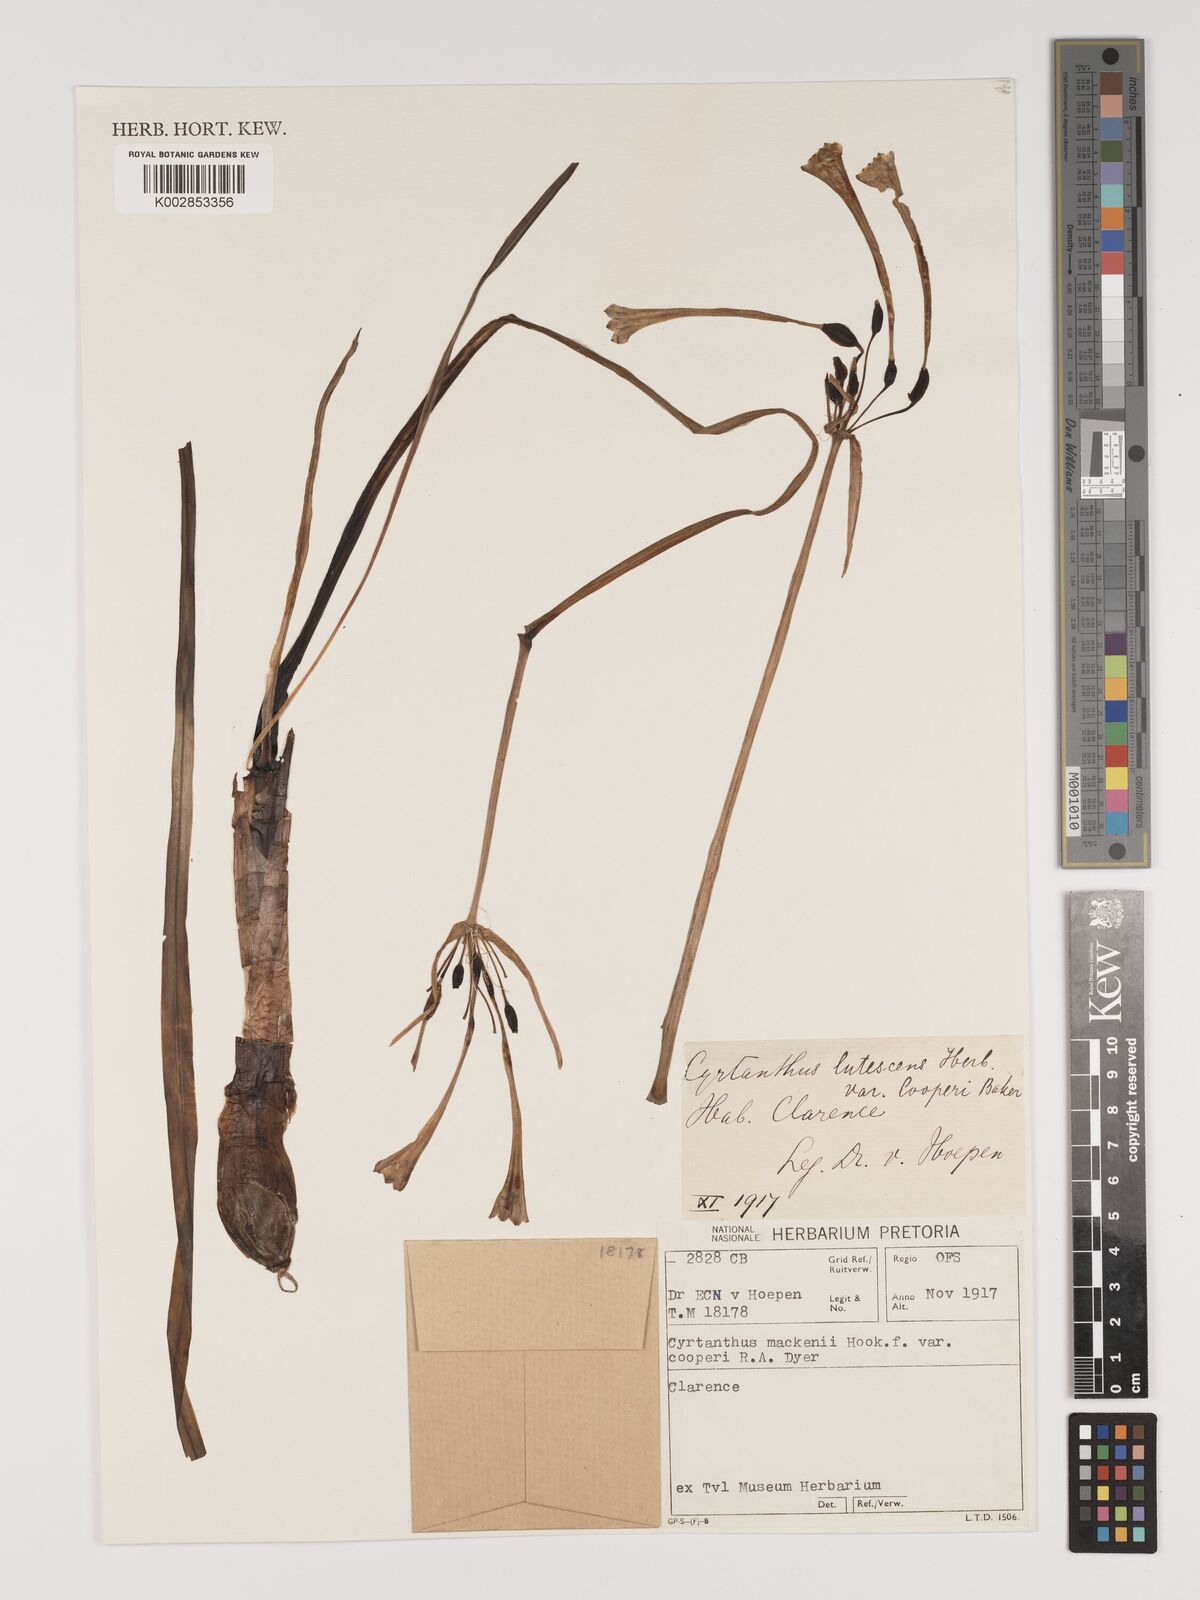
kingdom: Plantae
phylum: Tracheophyta
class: Liliopsida
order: Asparagales
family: Amaryllidaceae
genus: Cyrtanthus
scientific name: Cyrtanthus mackenii
